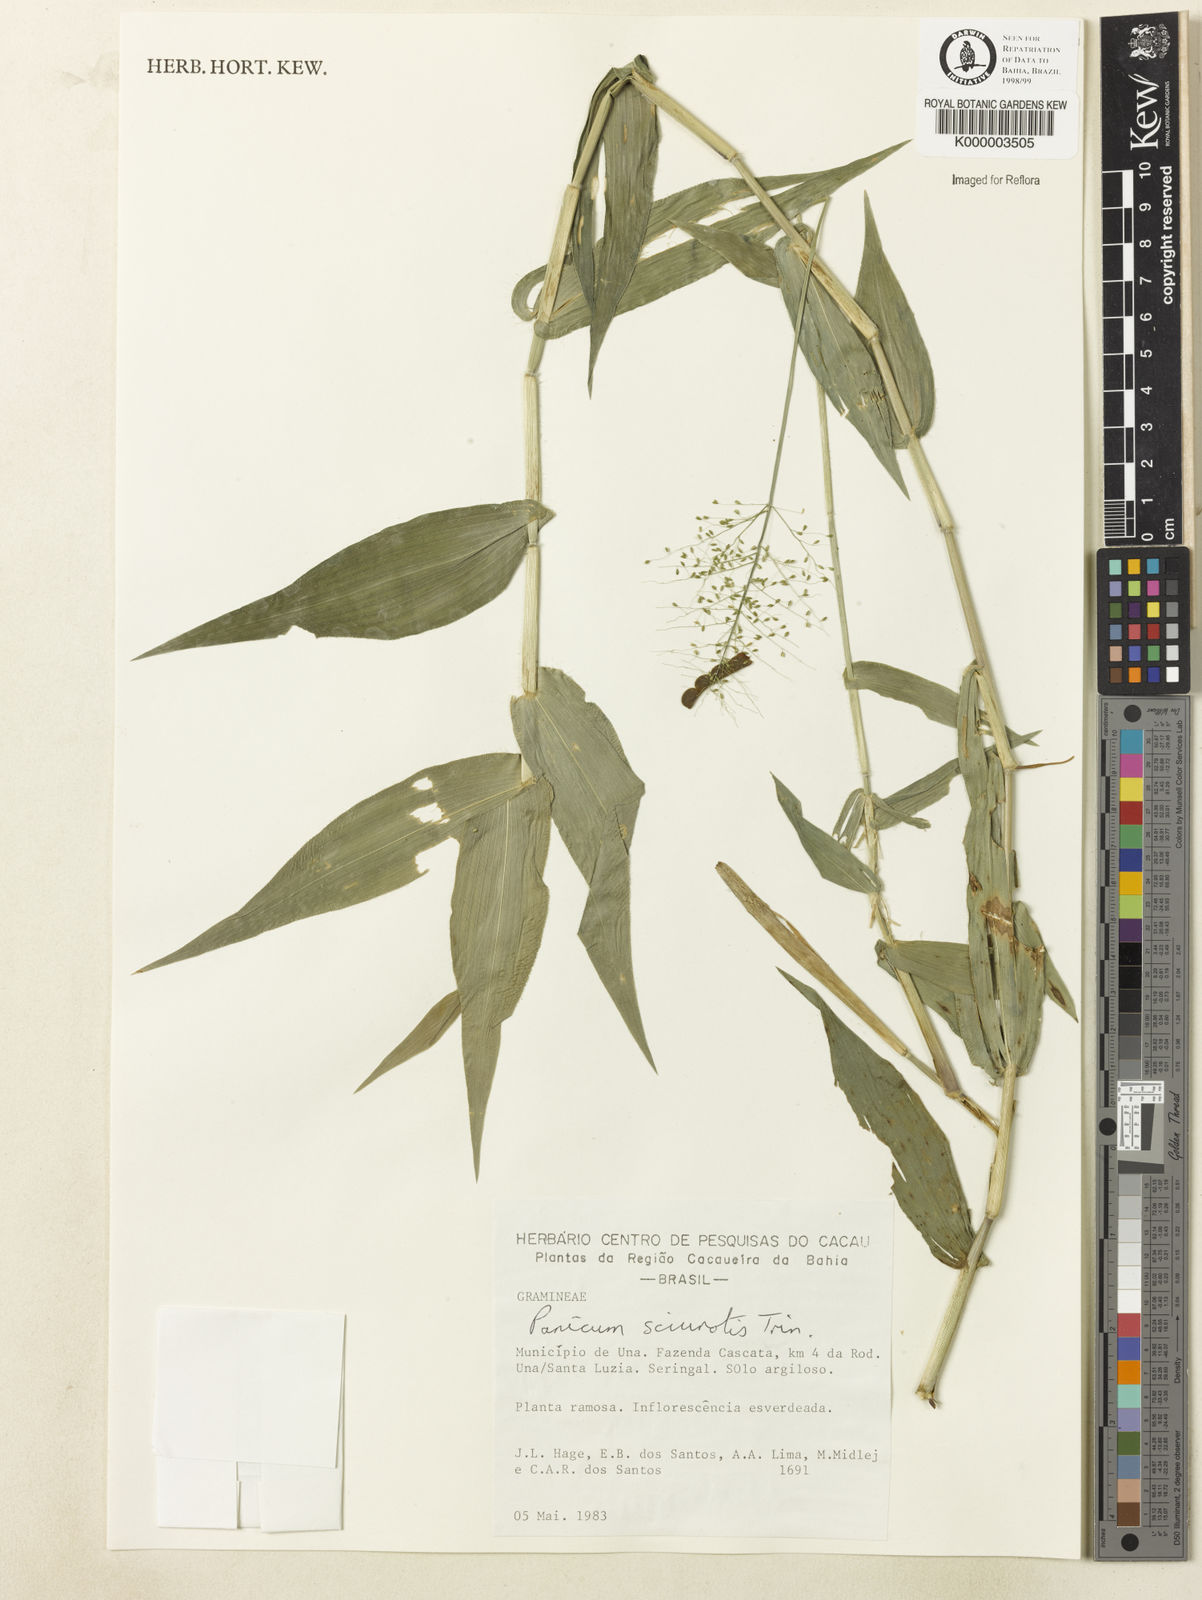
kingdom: Plantae
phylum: Tracheophyta
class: Liliopsida
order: Poales
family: Poaceae
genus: Dichanthelium
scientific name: Dichanthelium sciurotoides
